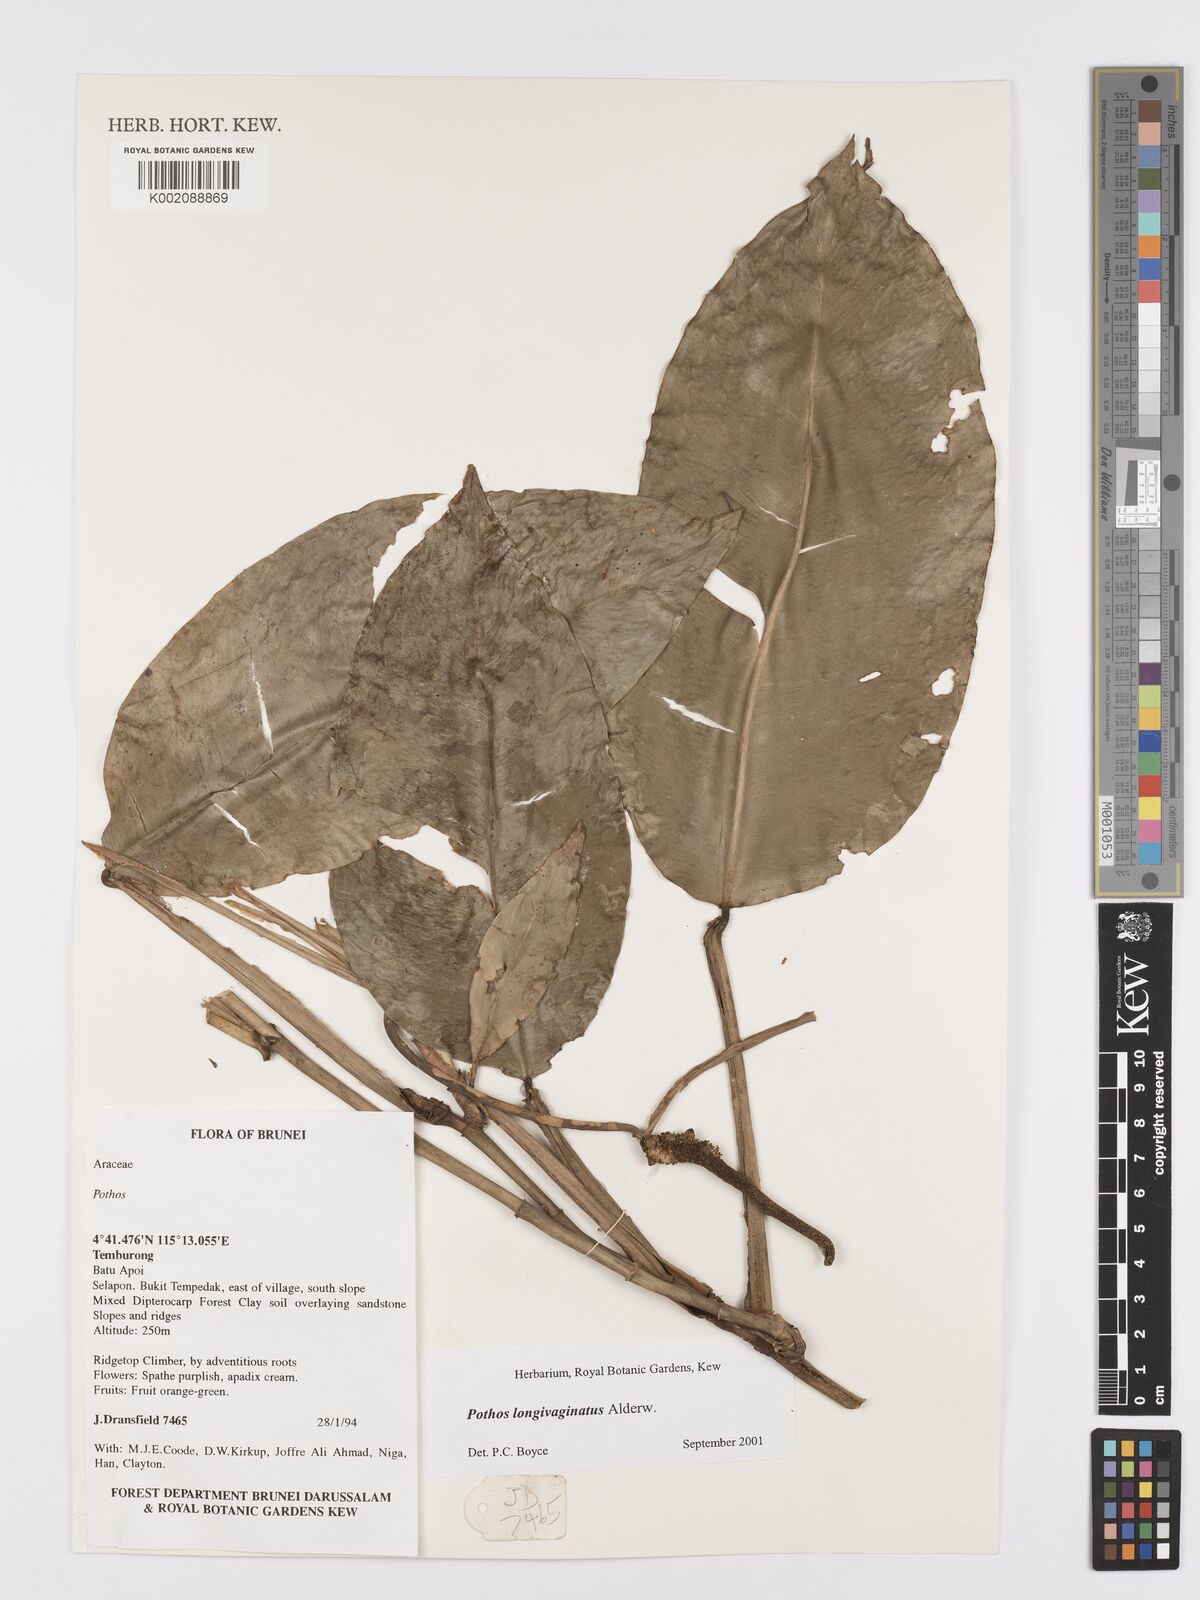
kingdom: Plantae
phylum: Tracheophyta
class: Liliopsida
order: Alismatales
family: Araceae
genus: Pothos
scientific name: Pothos longivaginatus
